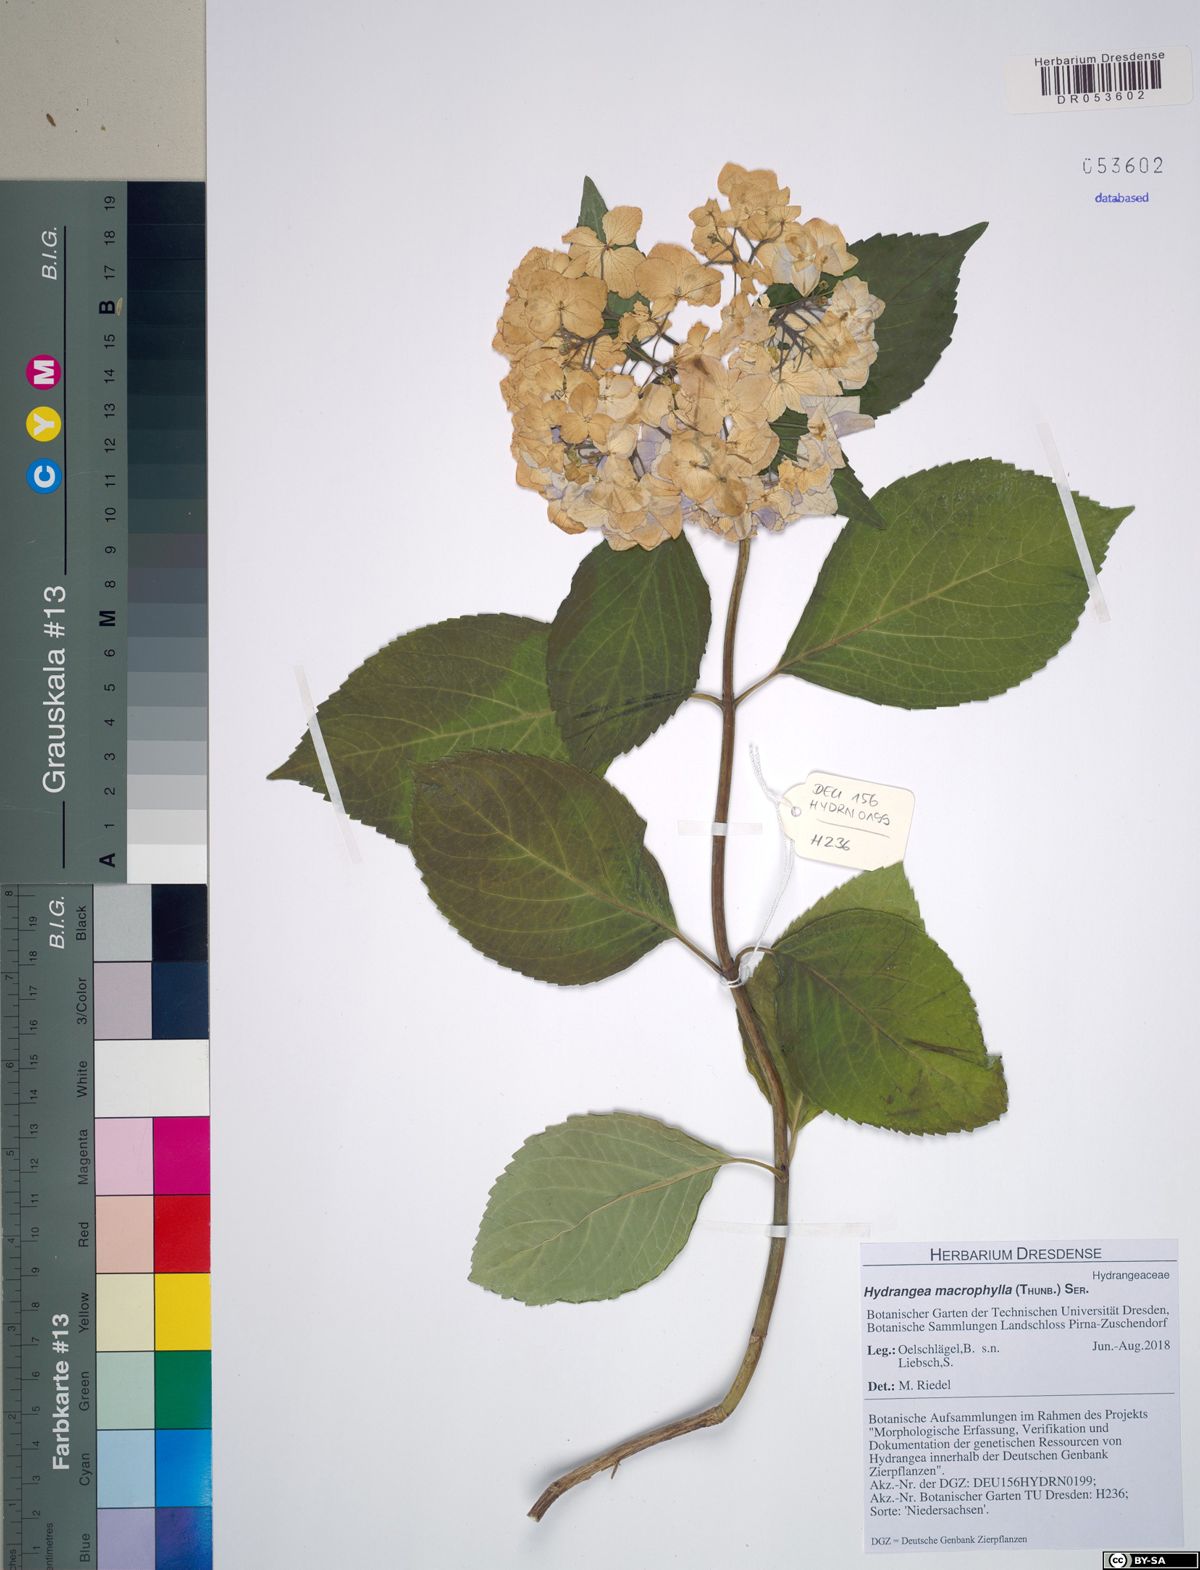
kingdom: Plantae
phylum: Tracheophyta
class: Magnoliopsida
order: Cornales
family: Hydrangeaceae
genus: Hydrangea
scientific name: Hydrangea macrophylla
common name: Hydrangea
